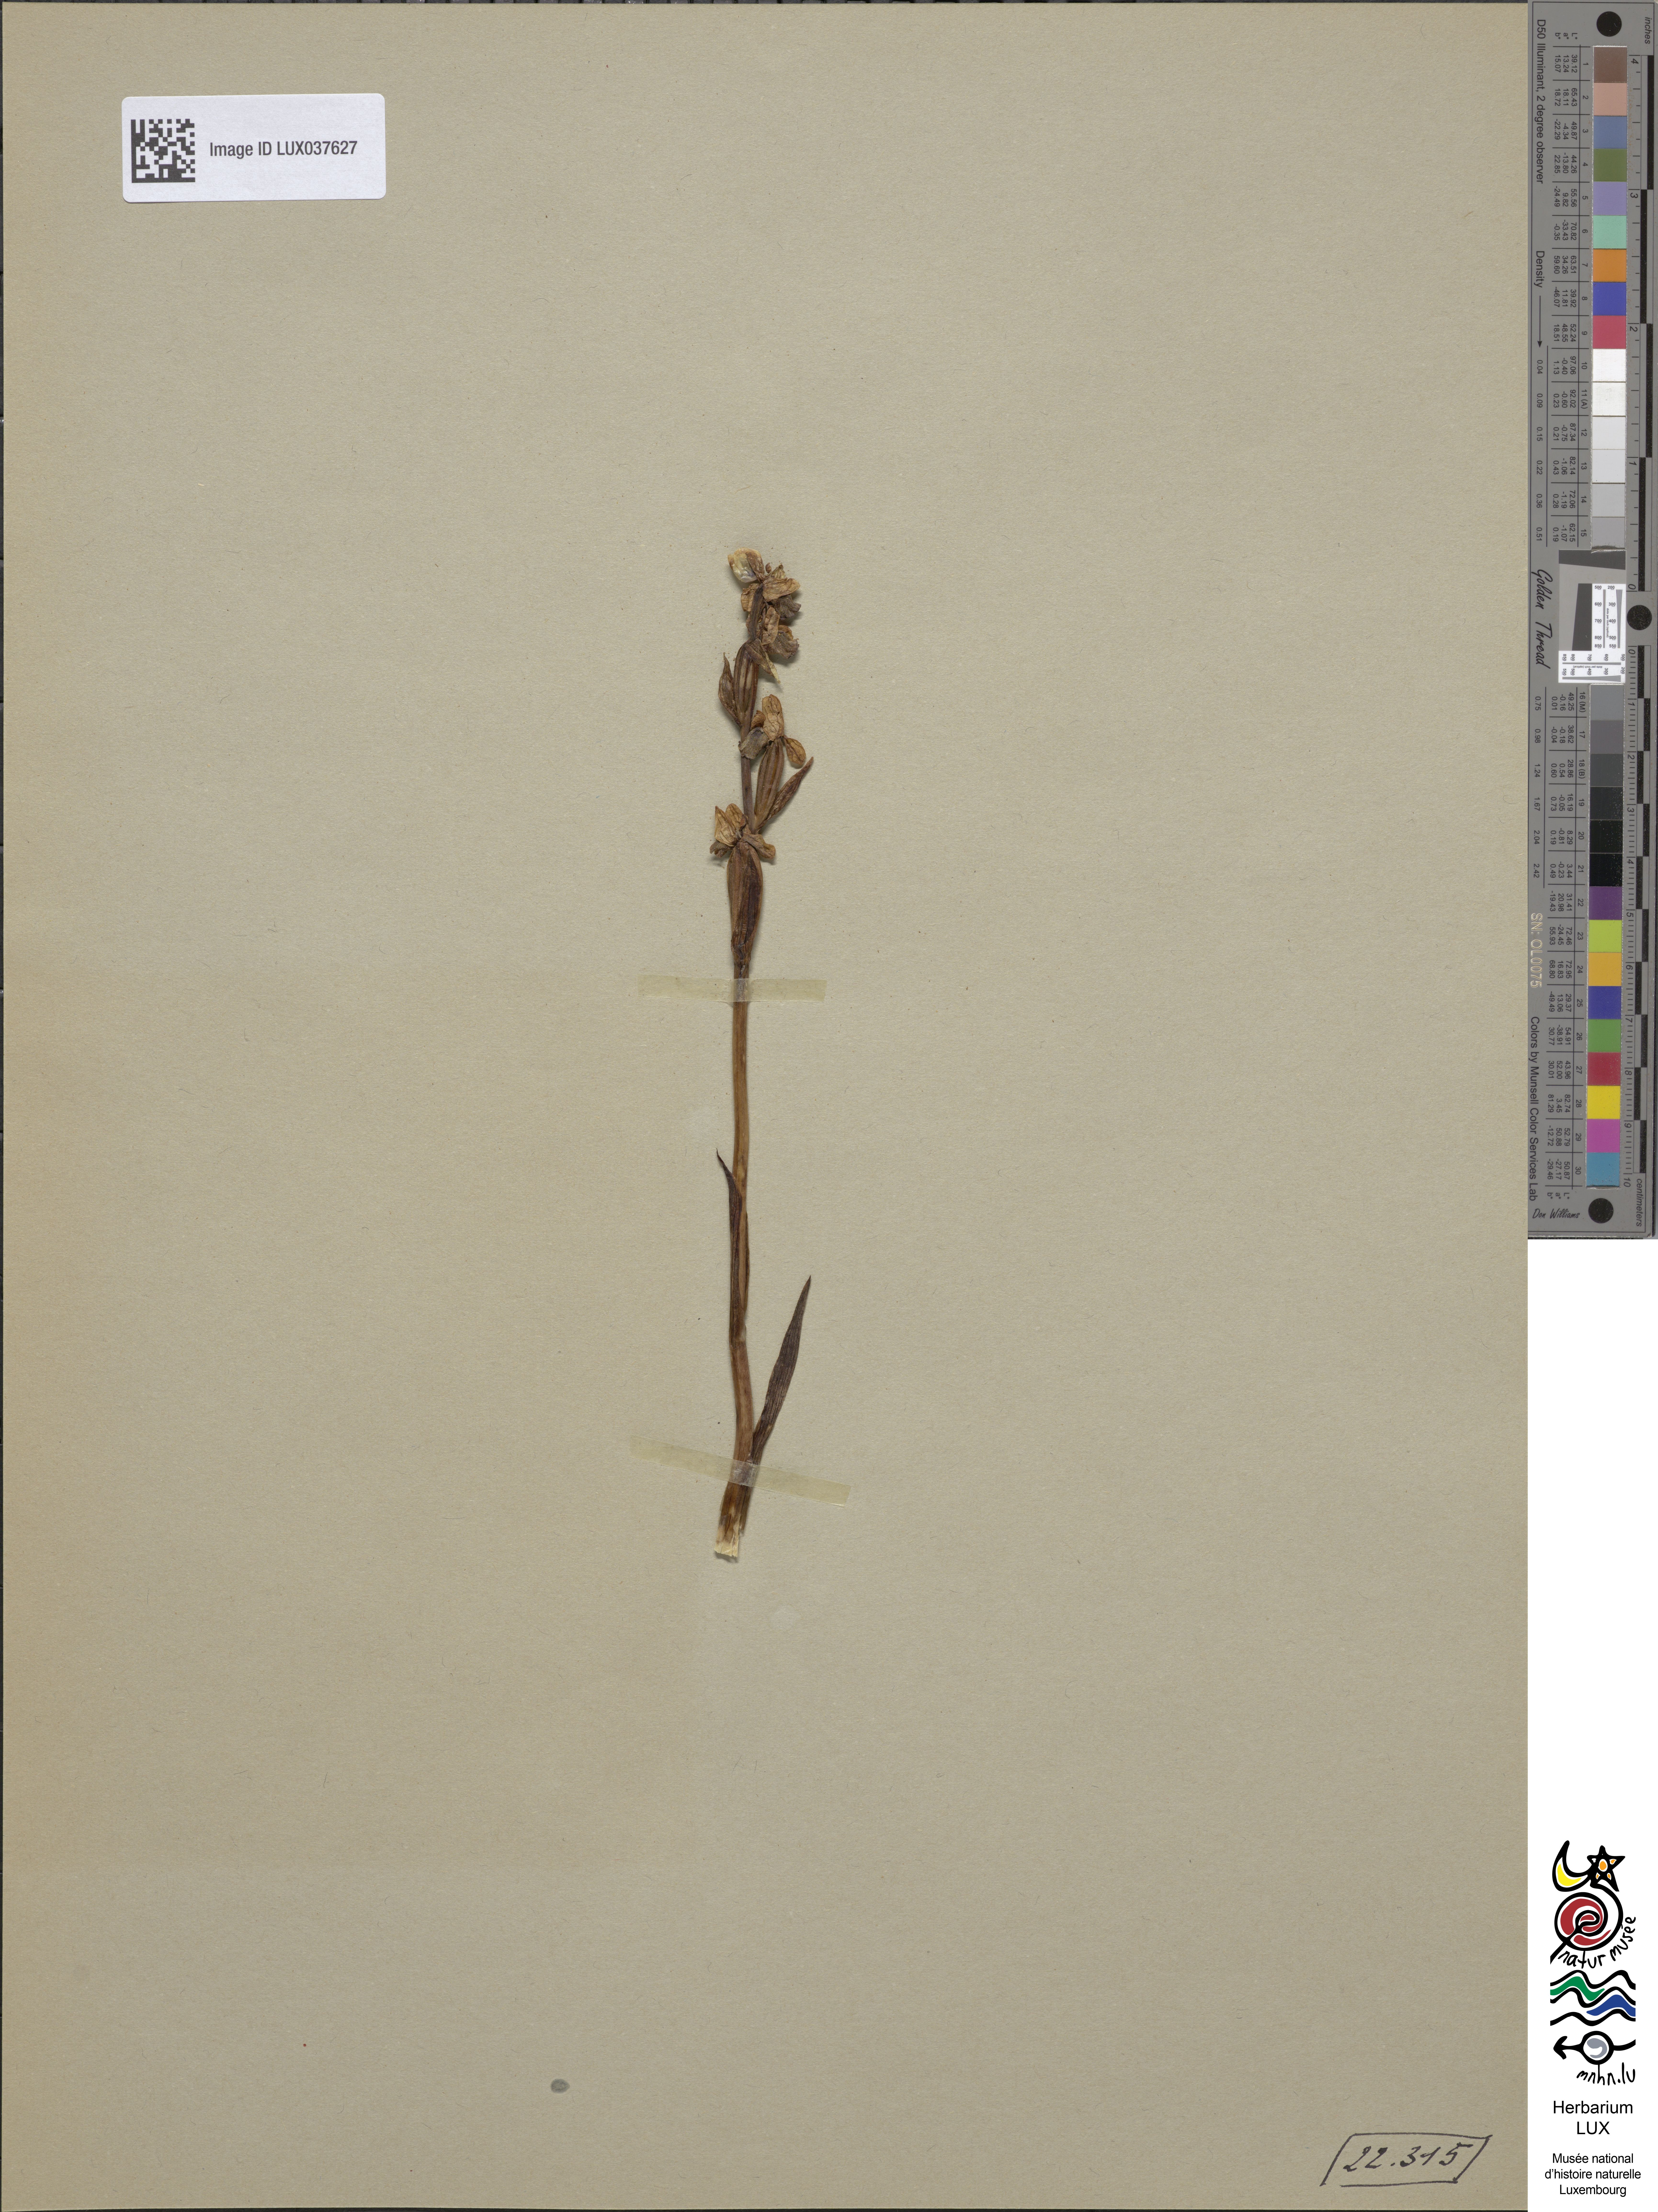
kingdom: Plantae
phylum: Tracheophyta
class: Liliopsida
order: Asparagales
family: Orchidaceae
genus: Ophrys
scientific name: Ophrys holosericea
